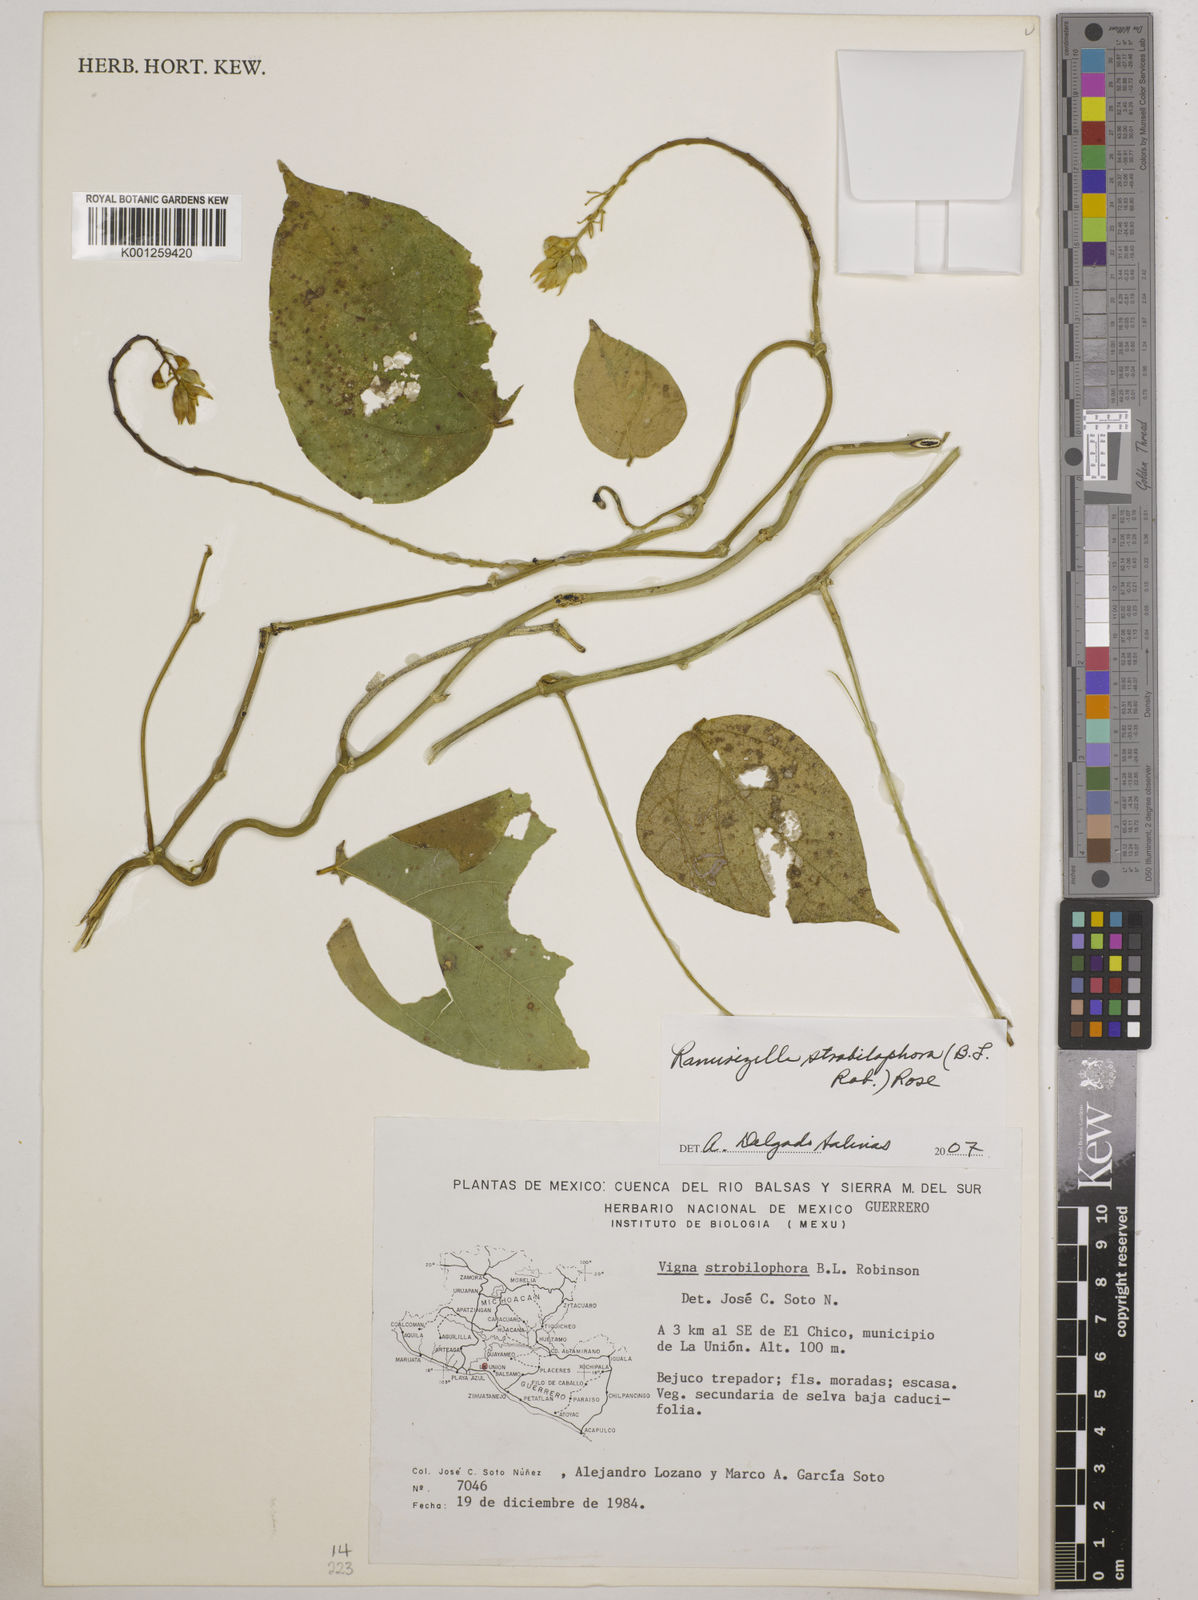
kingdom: Plantae
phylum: Tracheophyta
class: Magnoliopsida
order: Fabales
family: Fabaceae
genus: Ramirezella
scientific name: Ramirezella strobilophora
